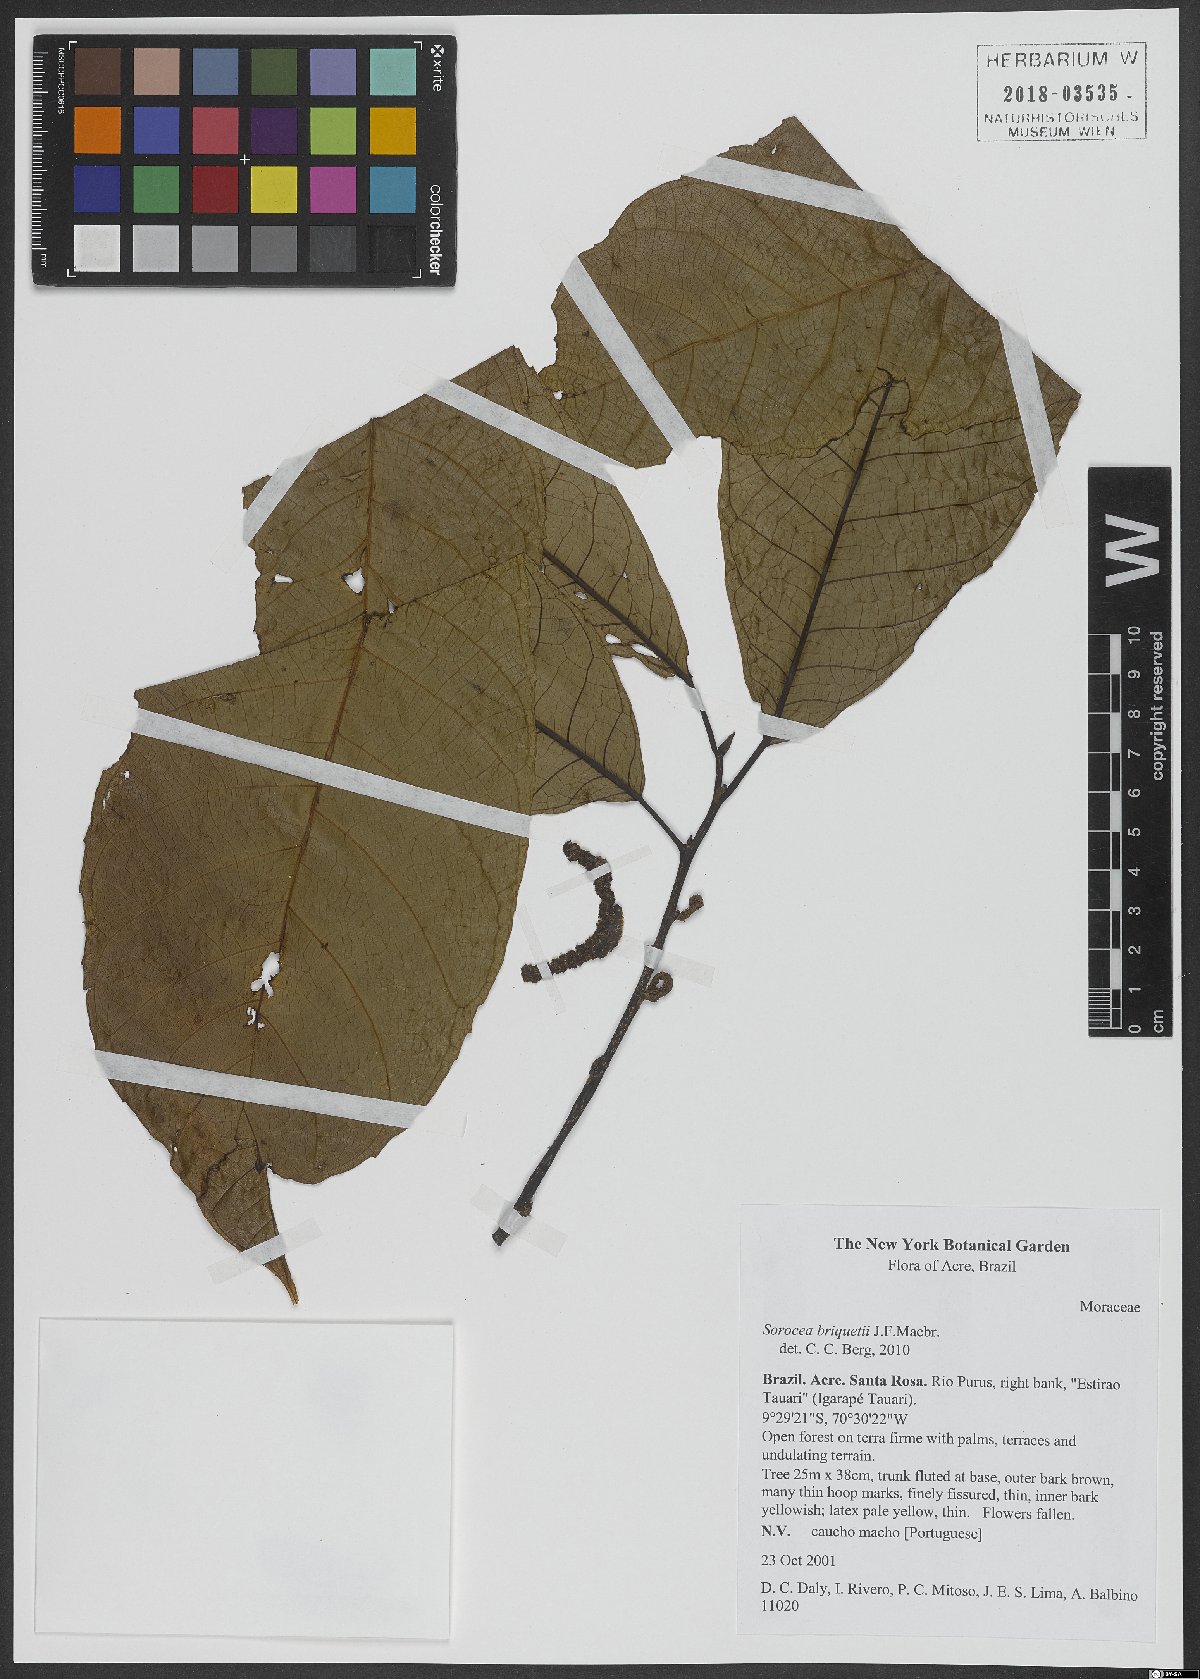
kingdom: Plantae
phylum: Tracheophyta
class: Magnoliopsida
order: Rosales
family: Moraceae
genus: Sorocea
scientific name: Sorocea briquetii
